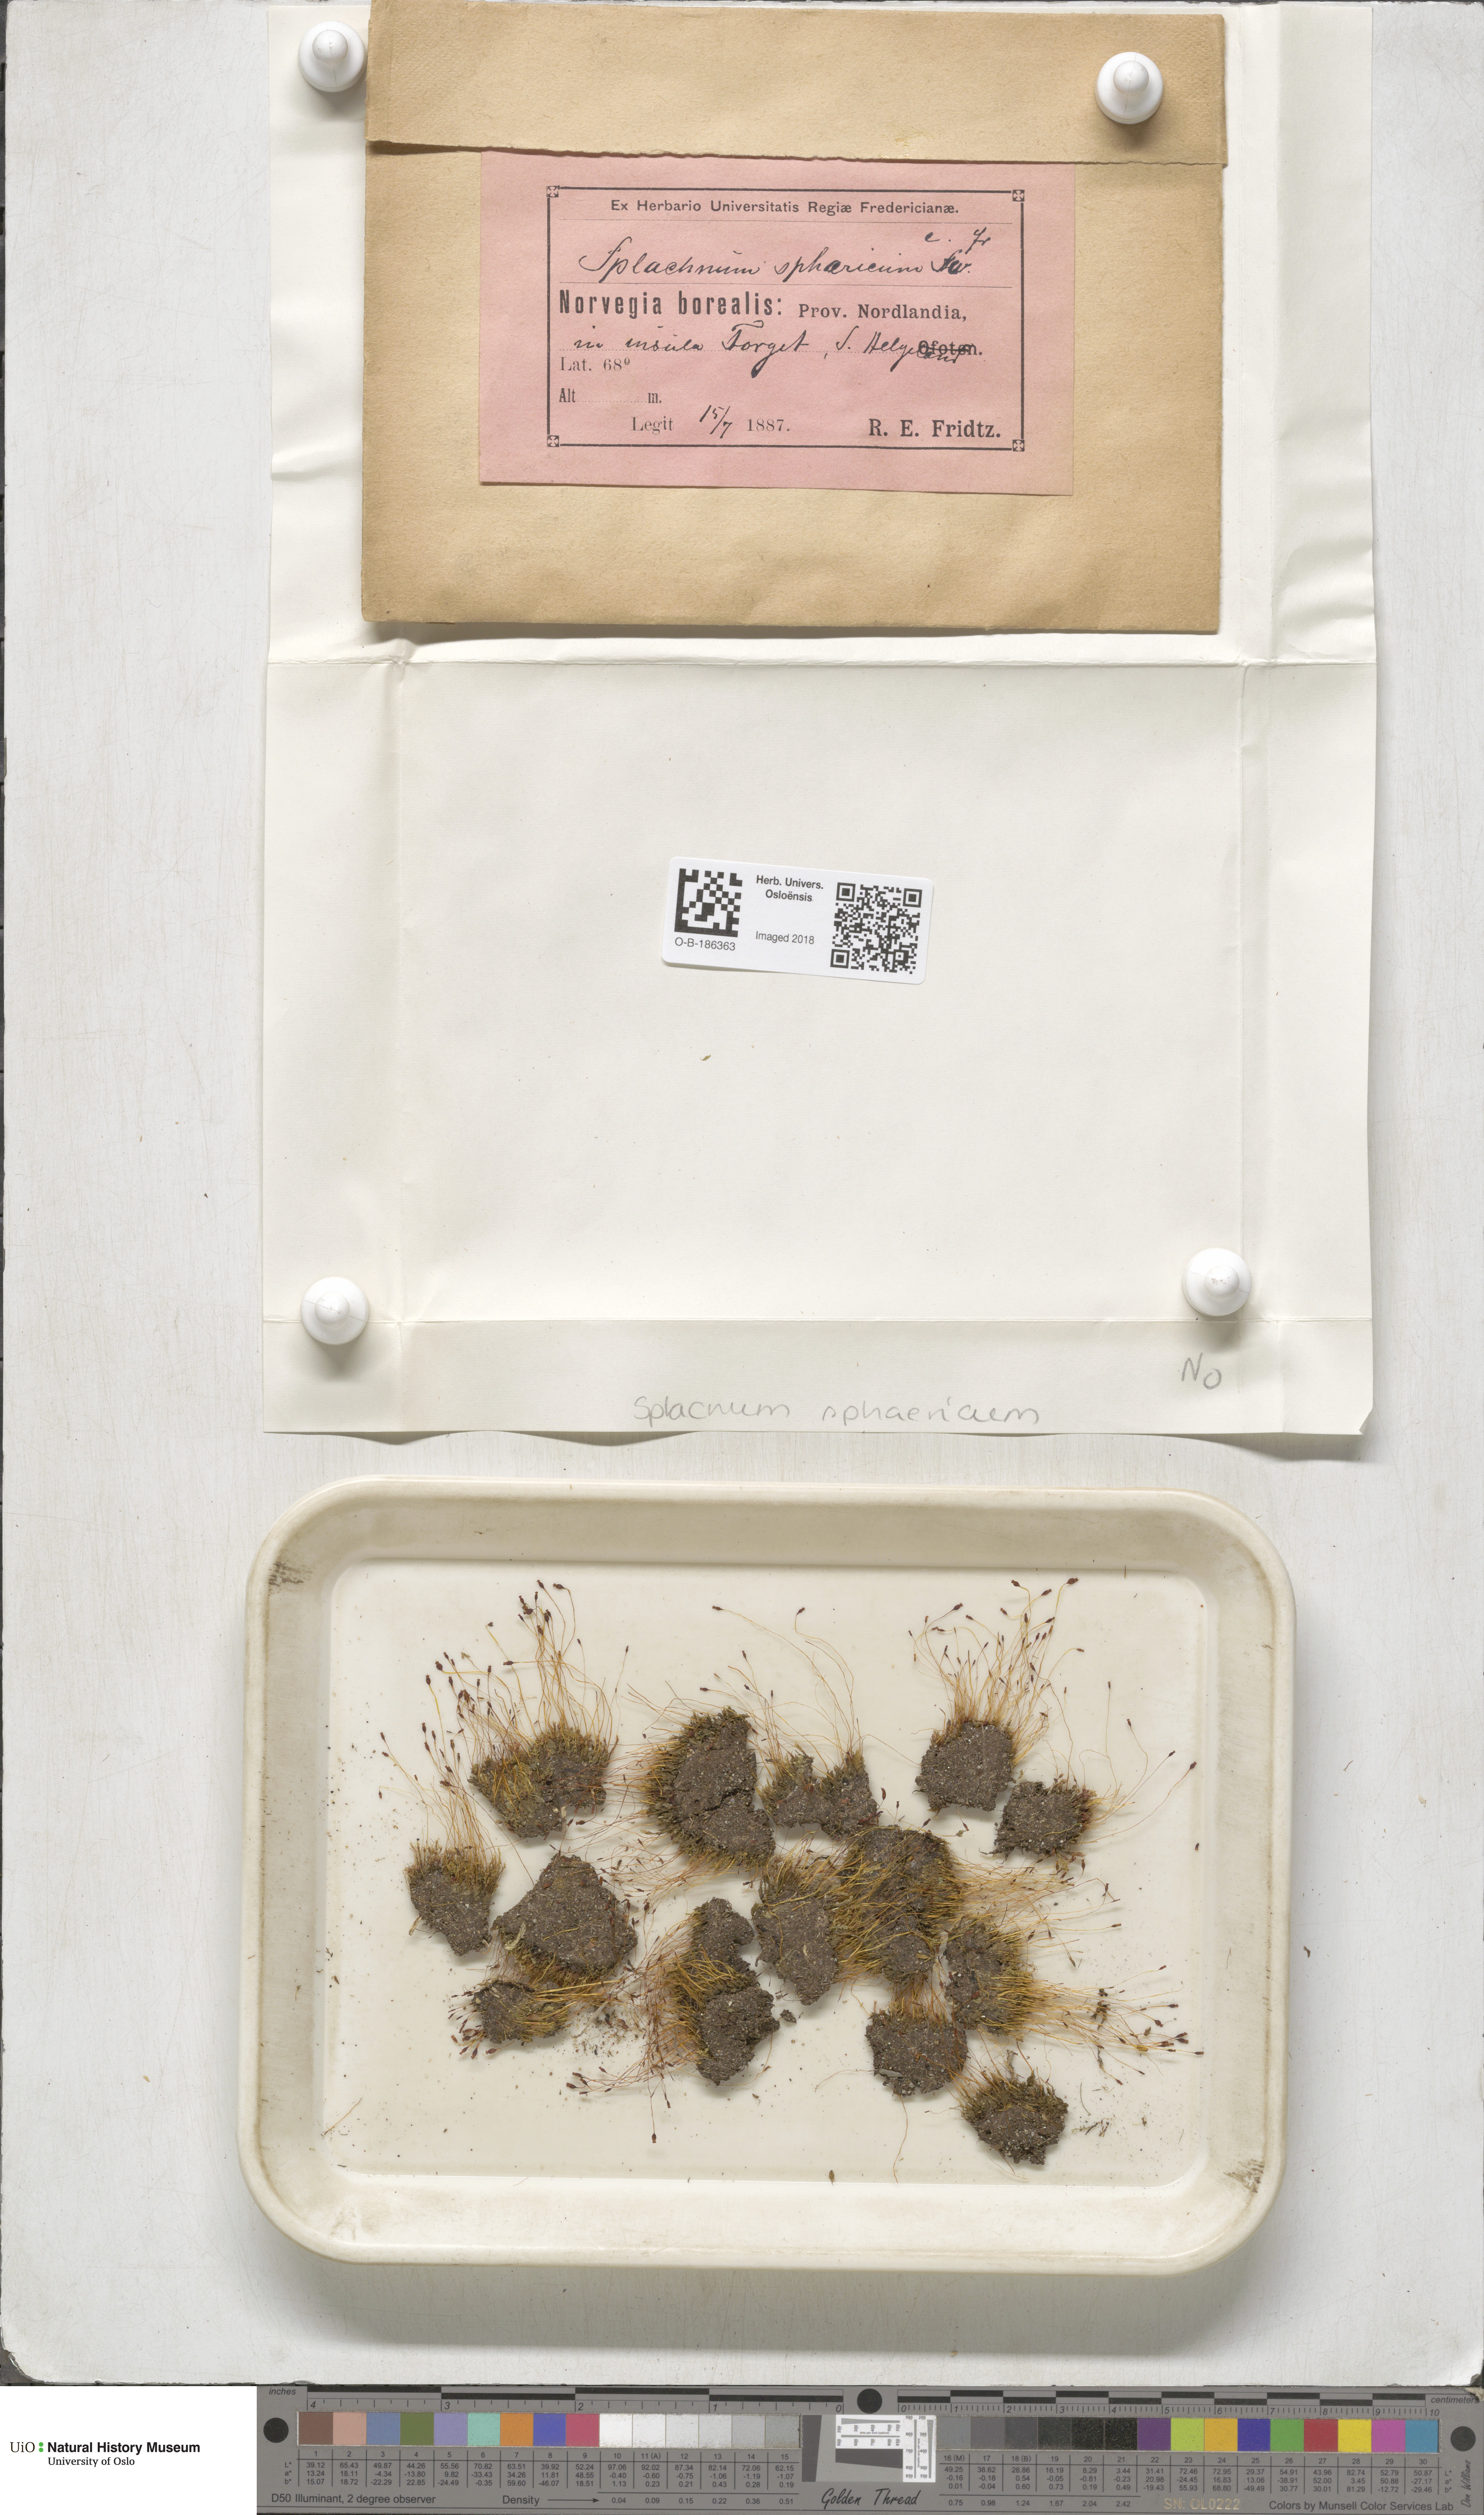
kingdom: Plantae
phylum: Bryophyta
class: Bryopsida
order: Splachnales
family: Splachnaceae
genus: Splachnum
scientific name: Splachnum sphaericum
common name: Round-fruited dung moss
